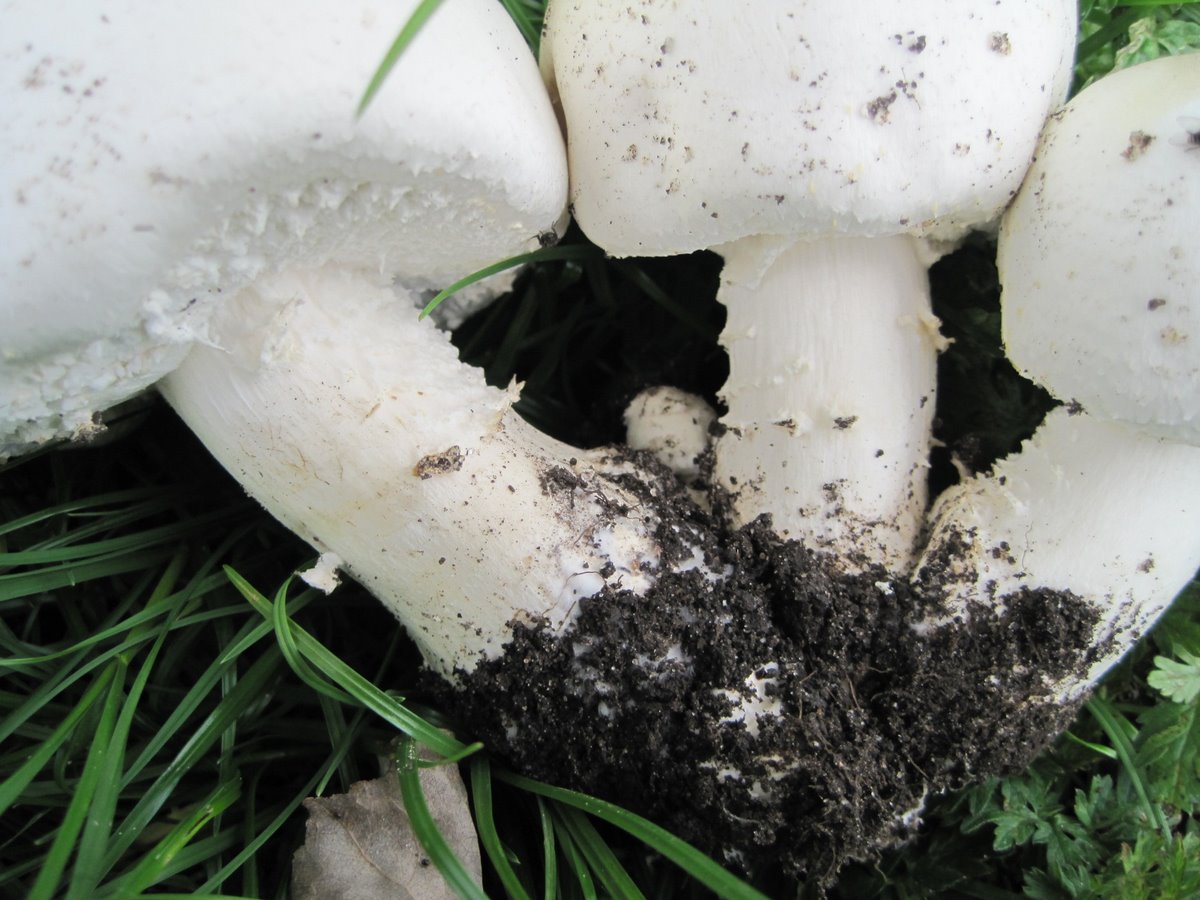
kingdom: Fungi
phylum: Basidiomycota
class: Agaricomycetes
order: Agaricales
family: Agaricaceae
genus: Agaricus
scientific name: Agaricus arvensis
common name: ager-champignon
